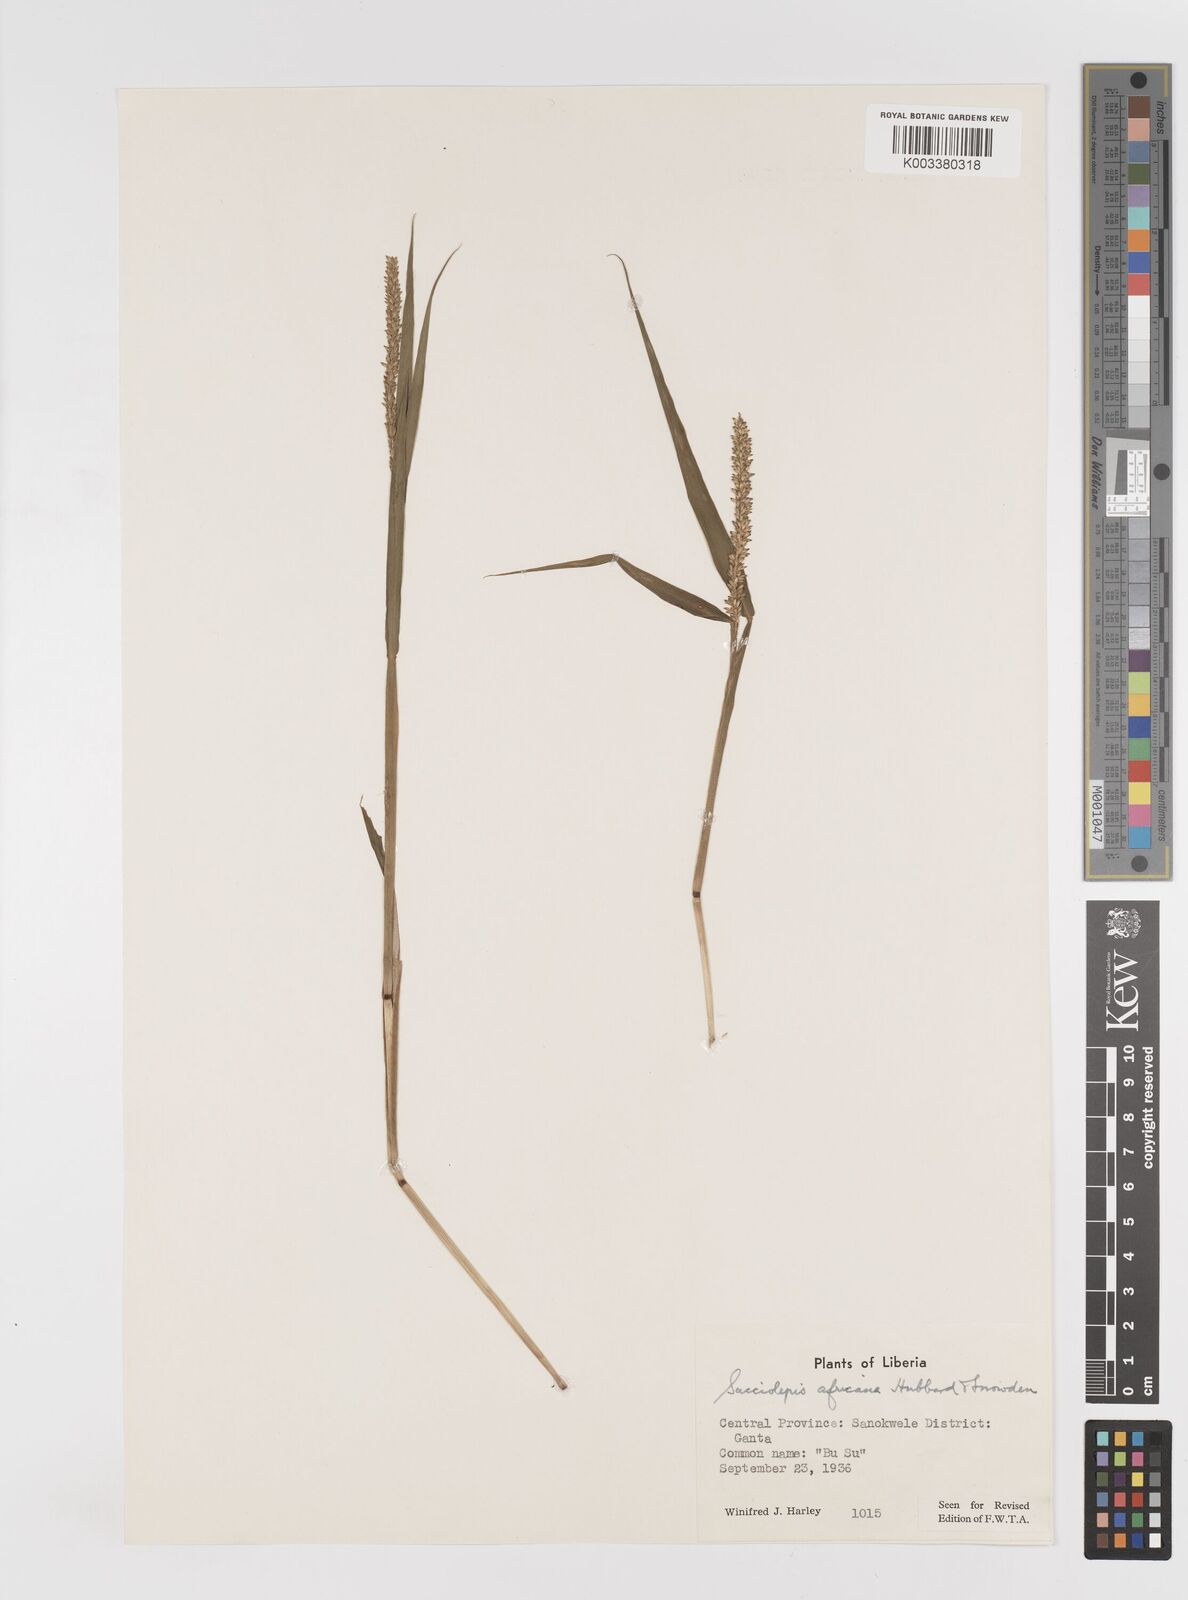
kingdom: Plantae
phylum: Tracheophyta
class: Liliopsida
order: Poales
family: Poaceae
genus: Sacciolepis
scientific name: Sacciolepis africana
